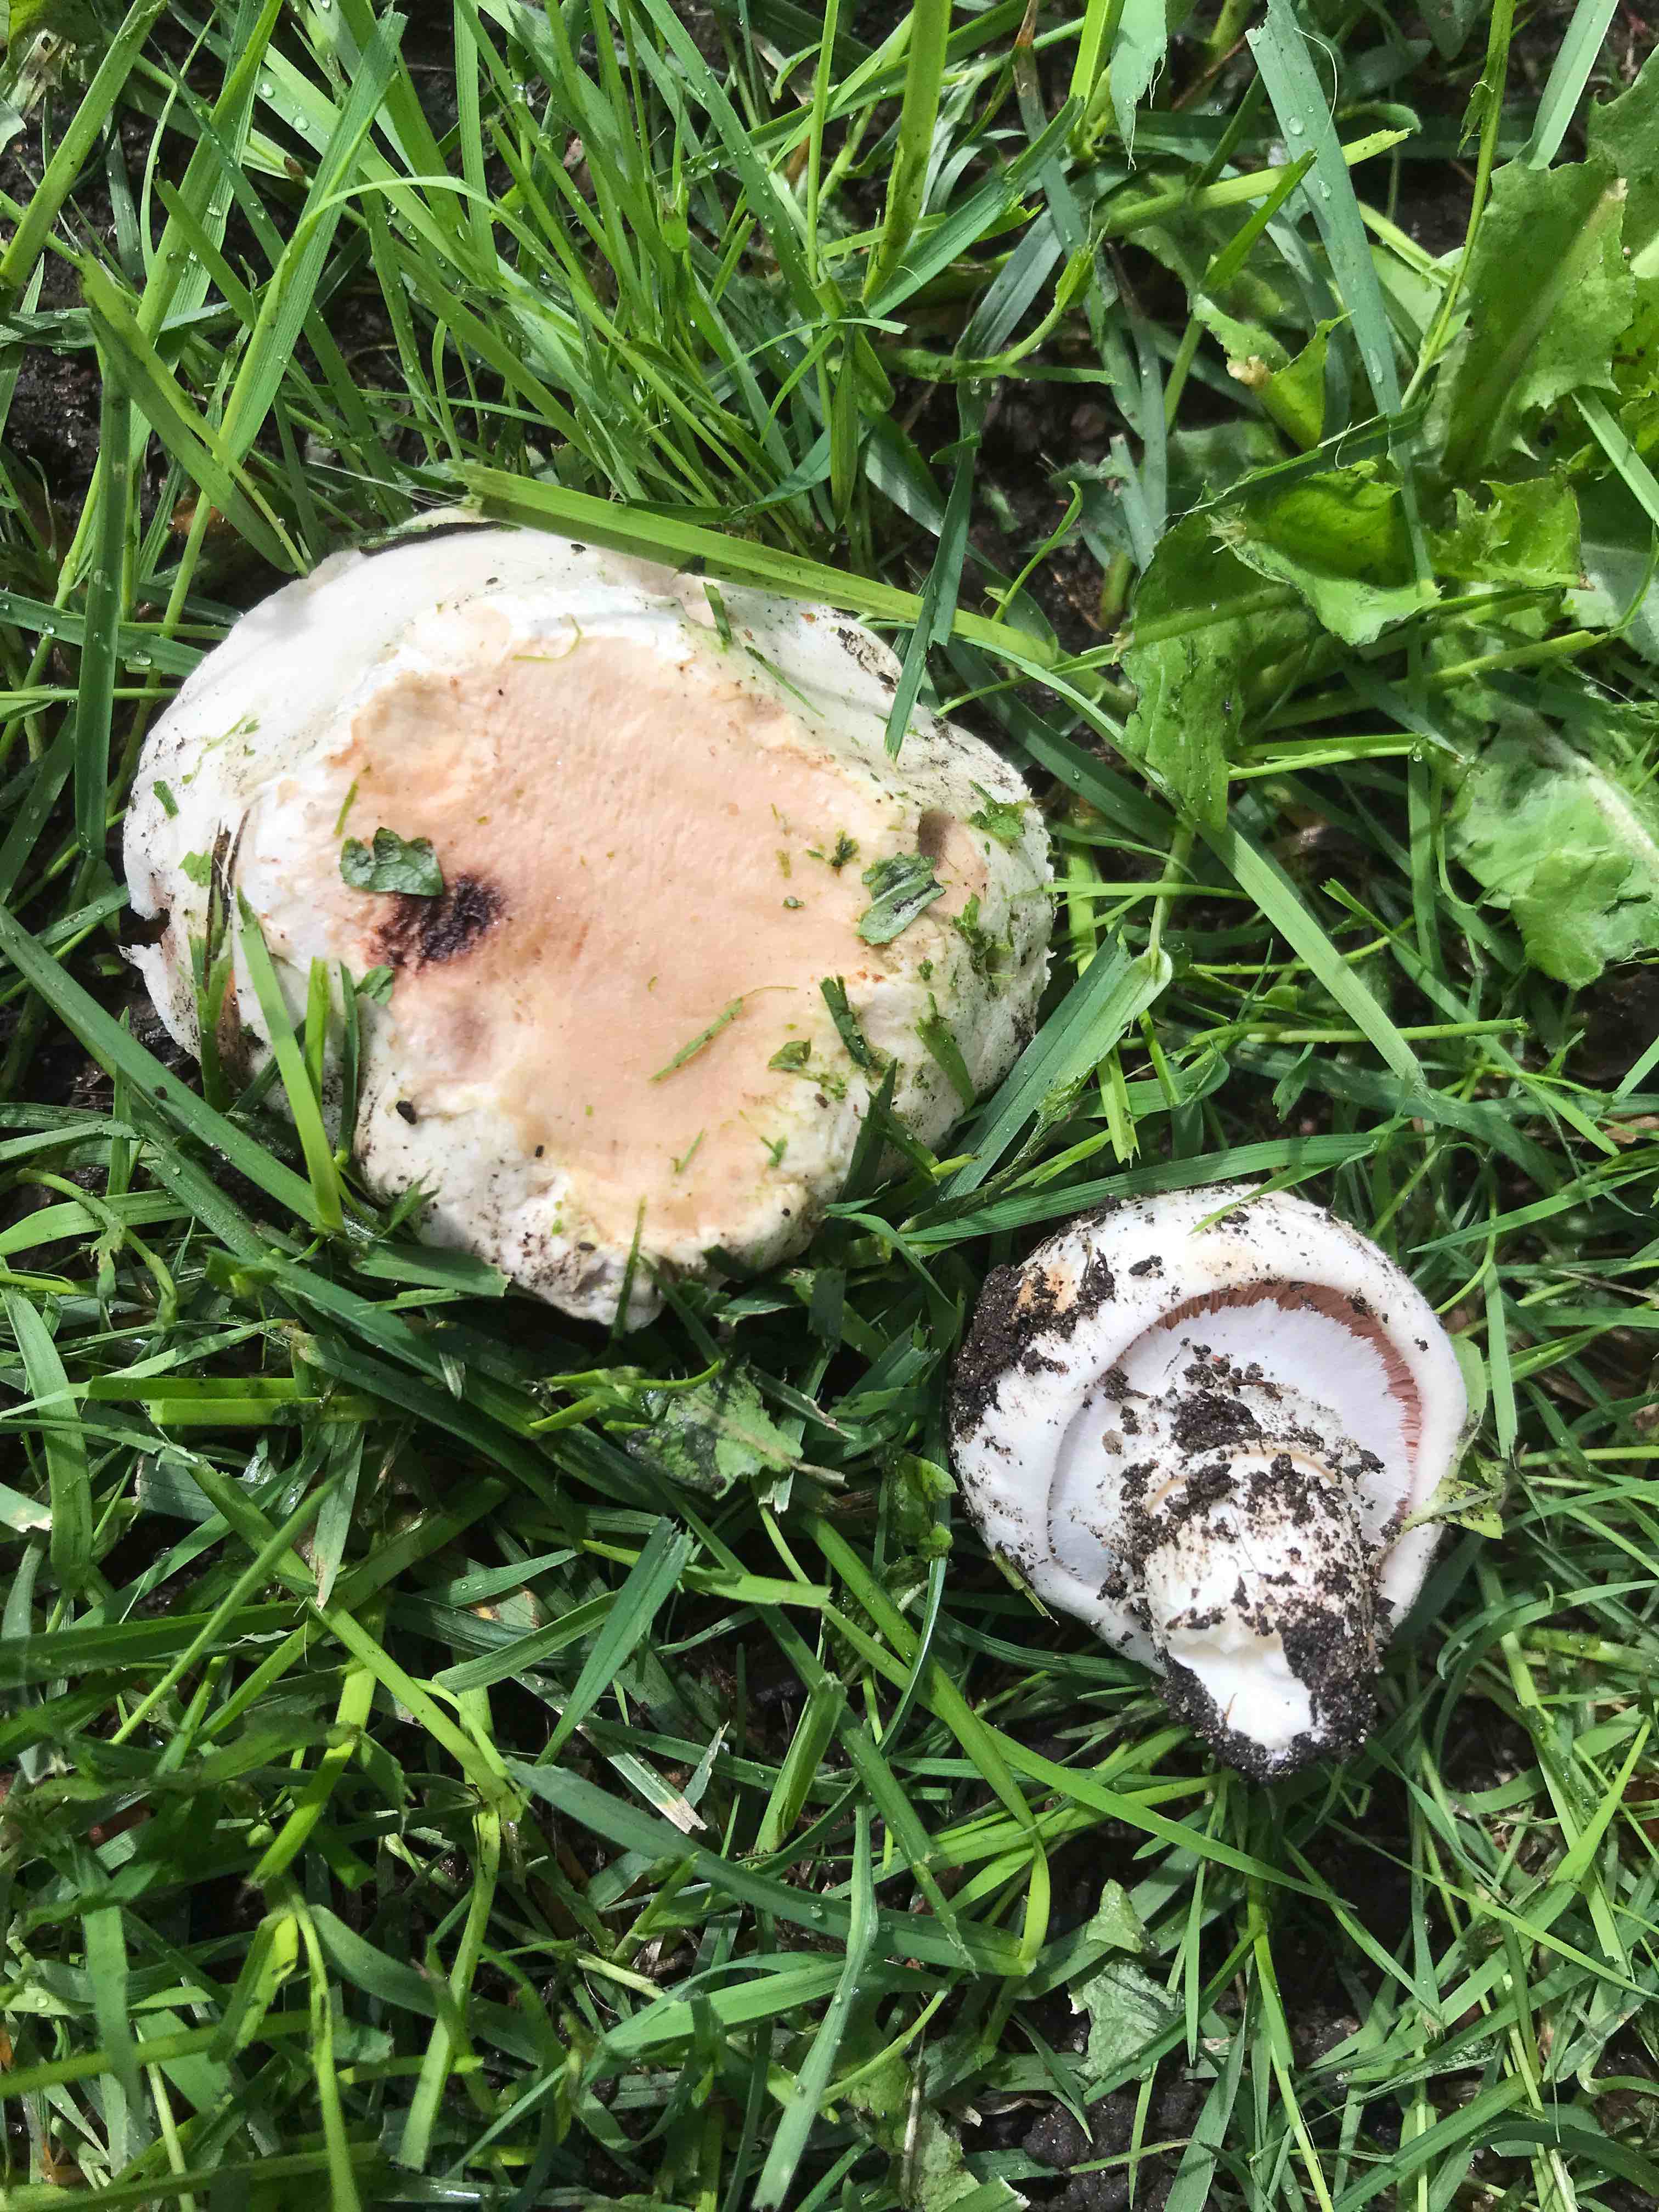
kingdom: Fungi
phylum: Basidiomycota
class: Agaricomycetes
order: Agaricales
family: Agaricaceae
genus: Agaricus
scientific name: Agaricus bitorquis
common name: vej-champignon
